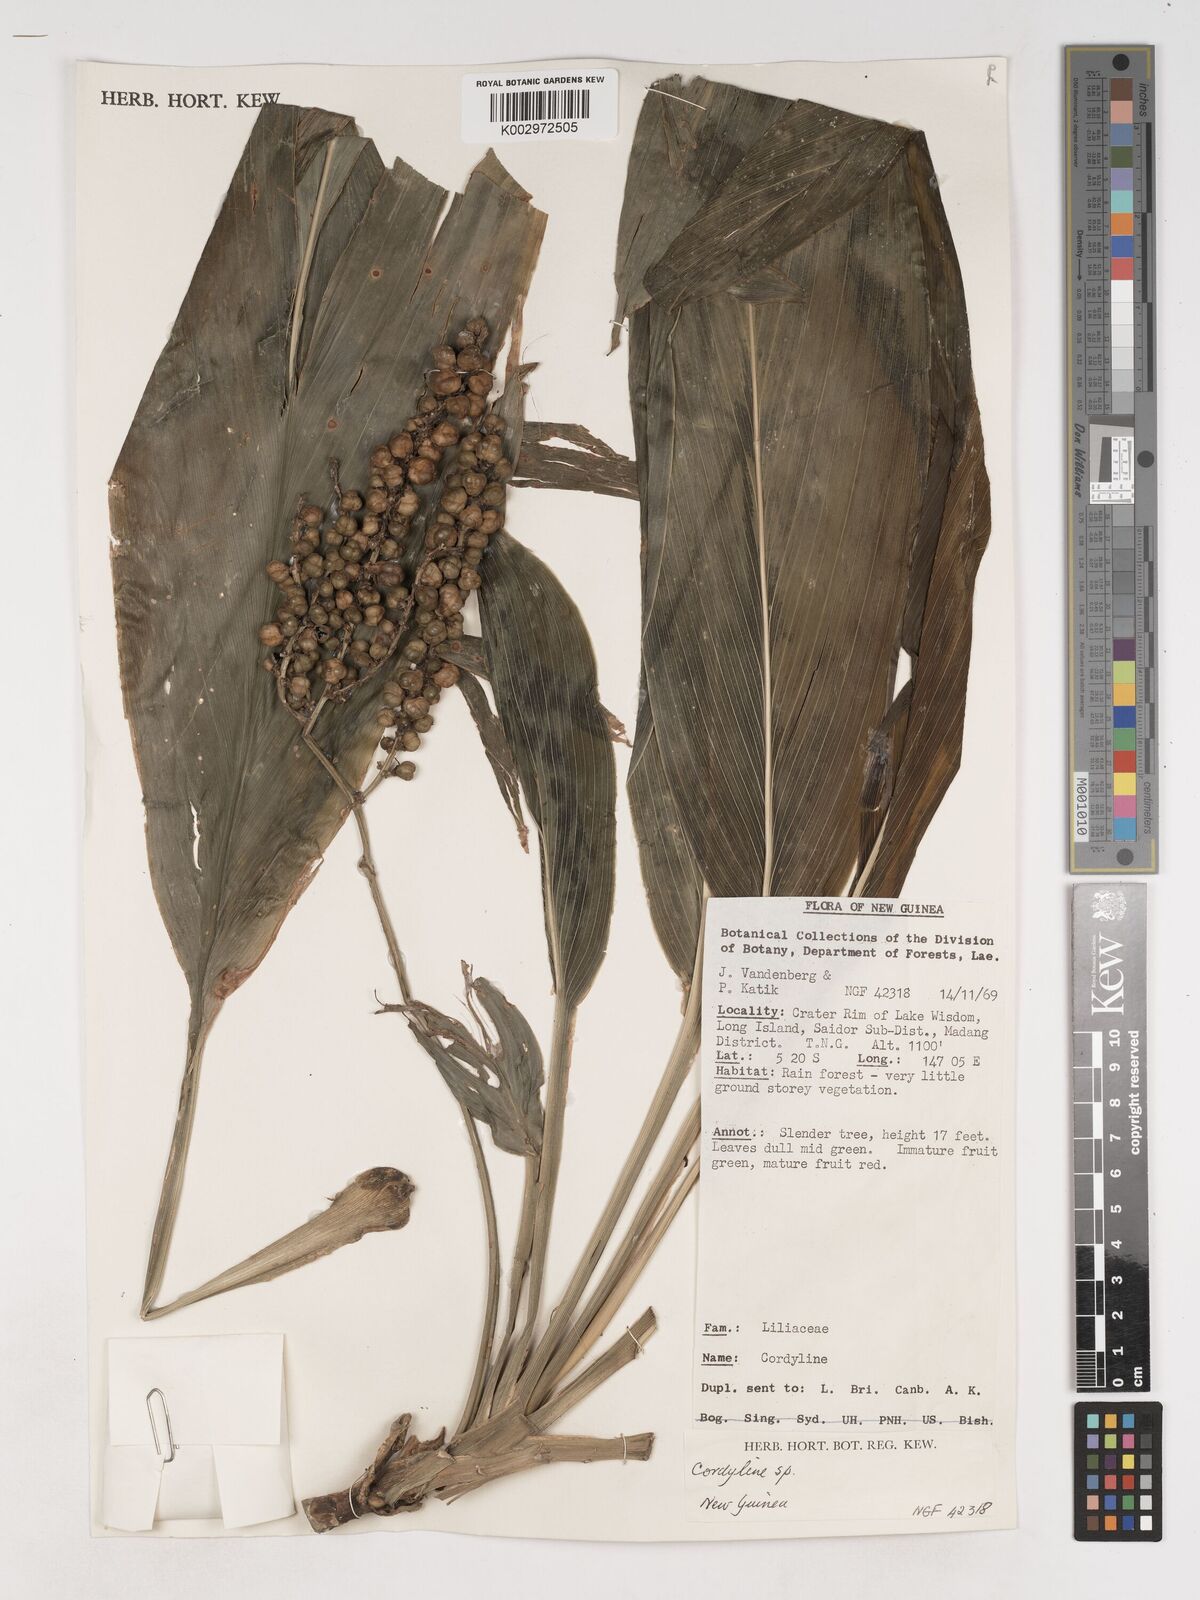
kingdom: Plantae
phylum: Tracheophyta
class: Liliopsida
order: Asparagales
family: Asparagaceae
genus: Cordyline
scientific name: Cordyline
